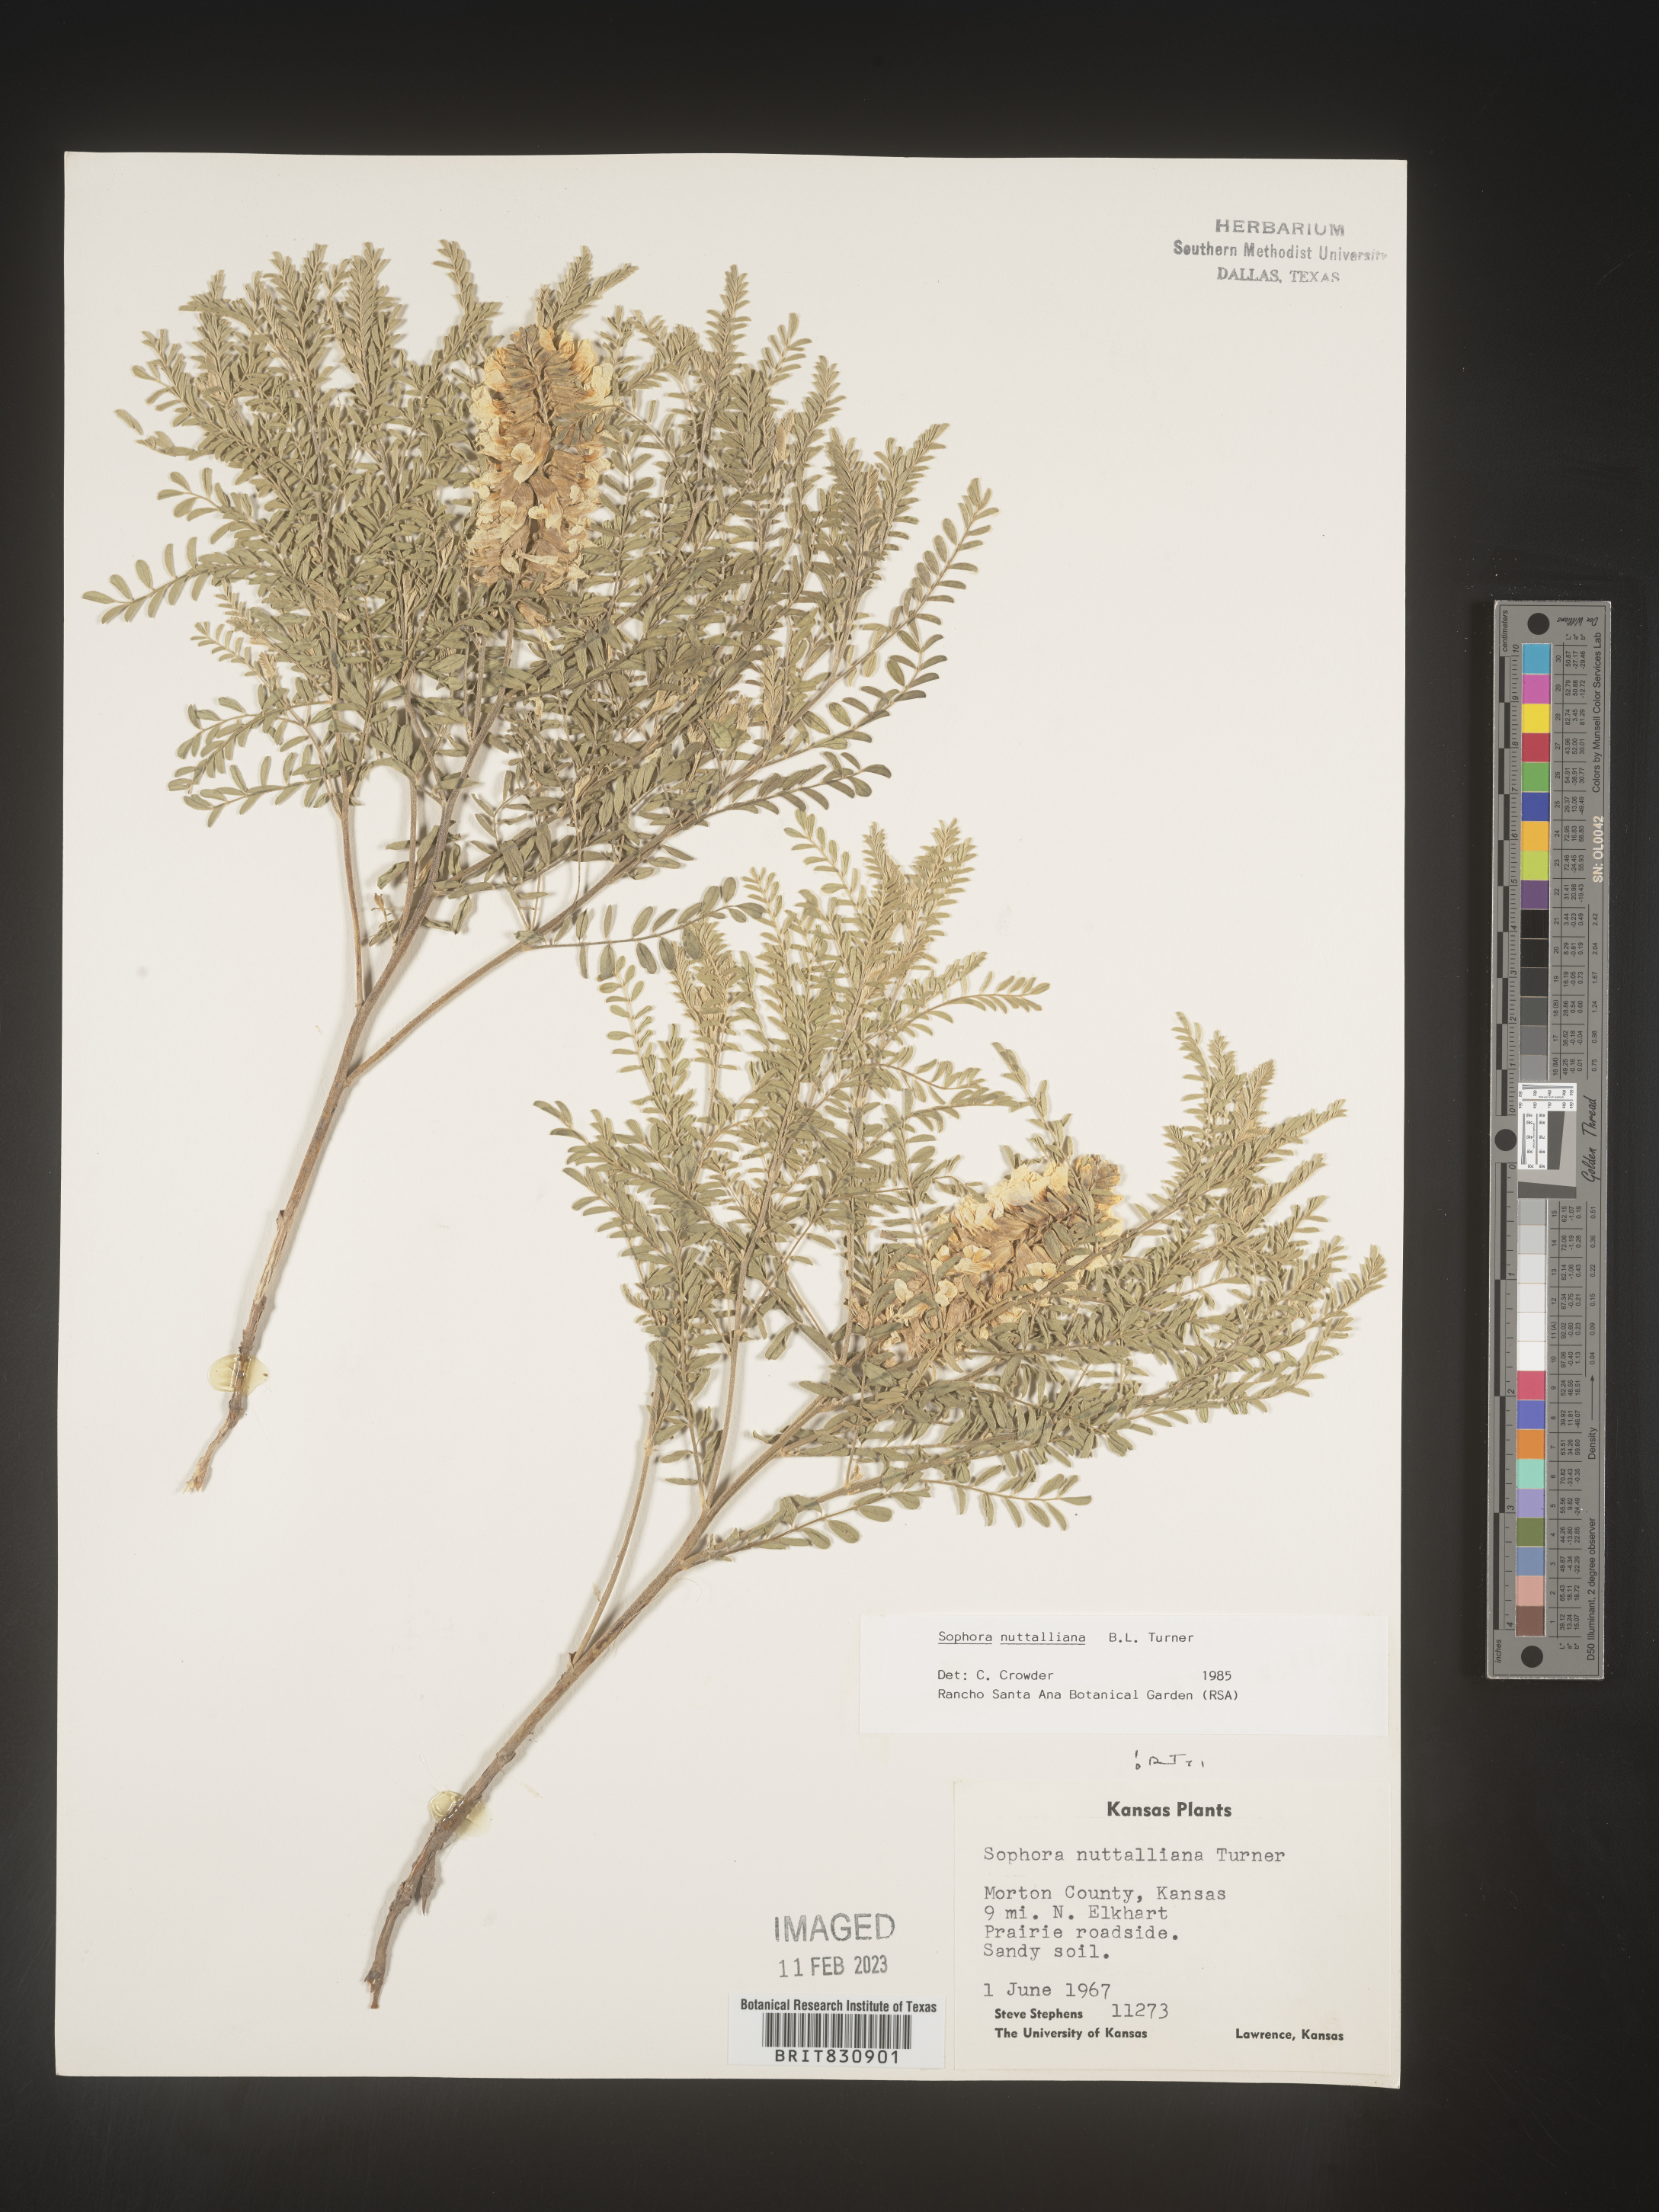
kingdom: Plantae
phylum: Tracheophyta
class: Magnoliopsida
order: Fabales
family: Fabaceae
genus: Sophora
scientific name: Sophora nuttalliana
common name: Silky sophora
